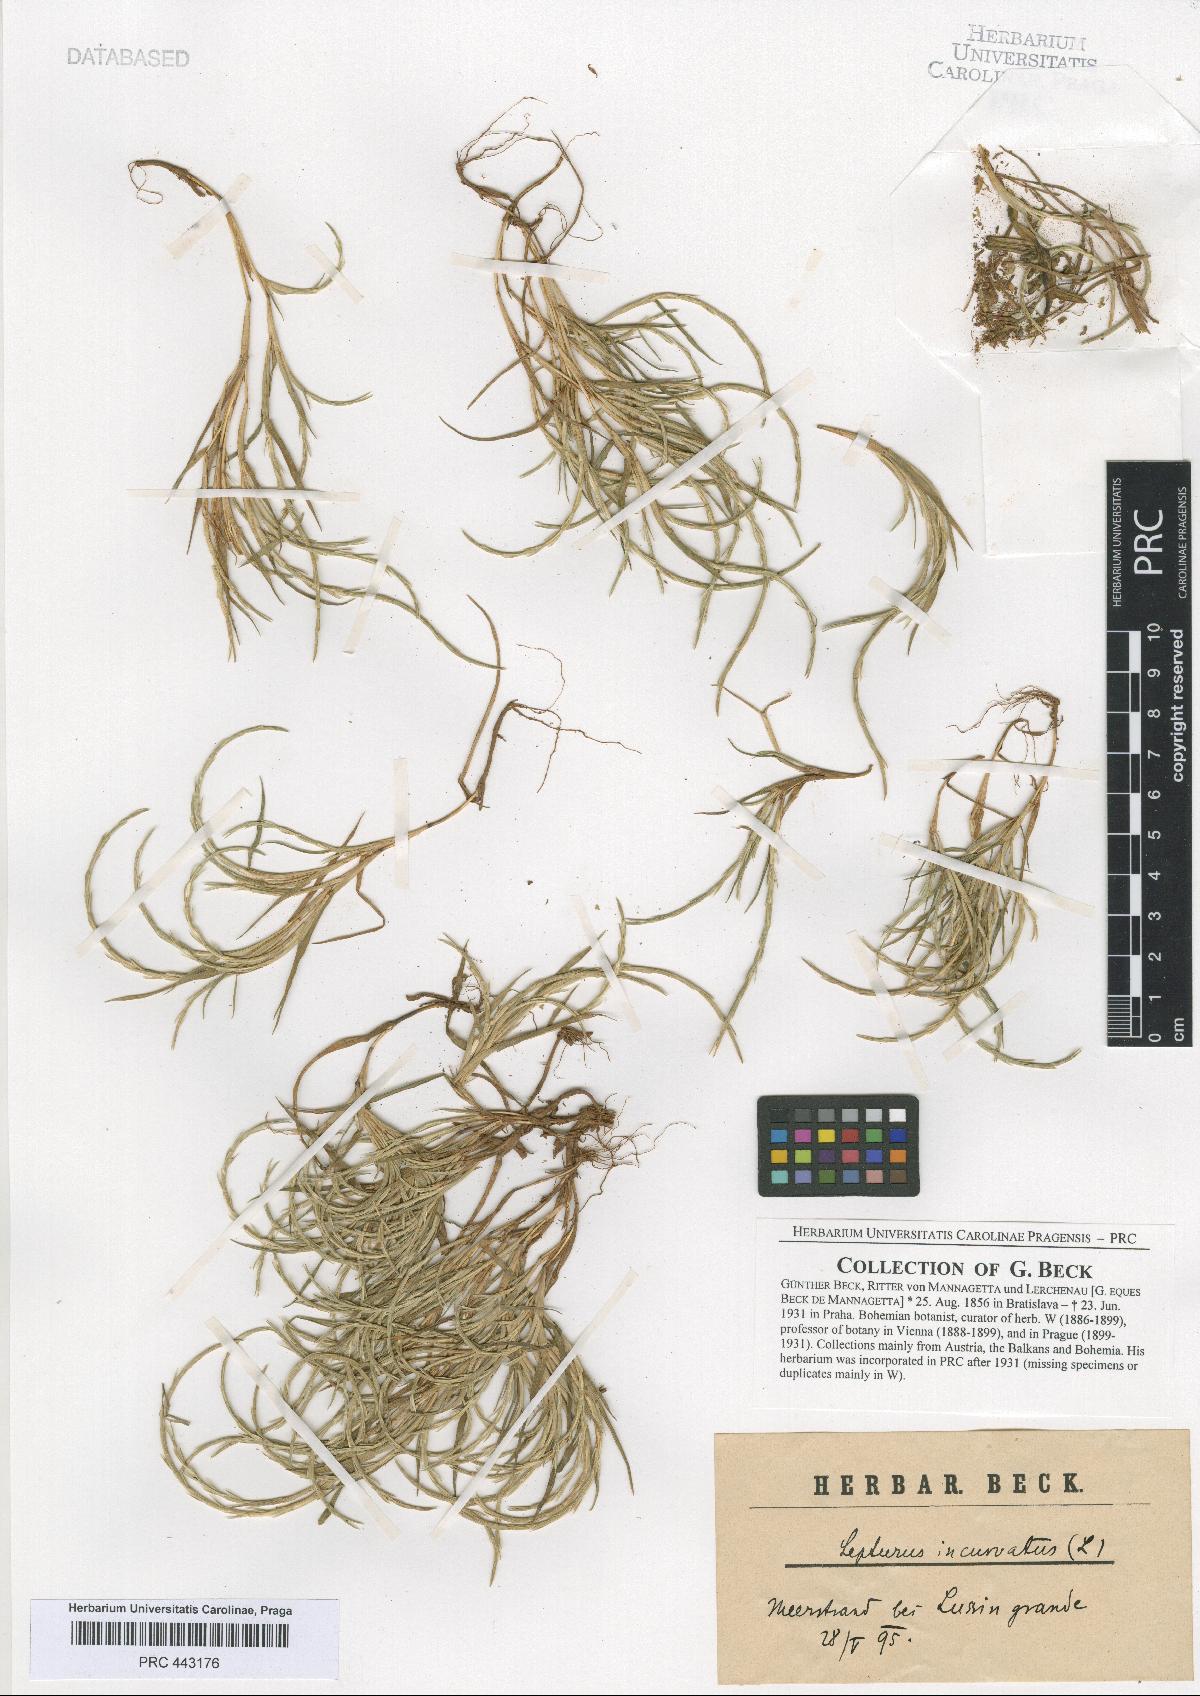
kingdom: Plantae
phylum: Tracheophyta
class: Liliopsida
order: Poales
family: Poaceae
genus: Parapholis
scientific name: Parapholis incurva
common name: Curved sicklegrass
